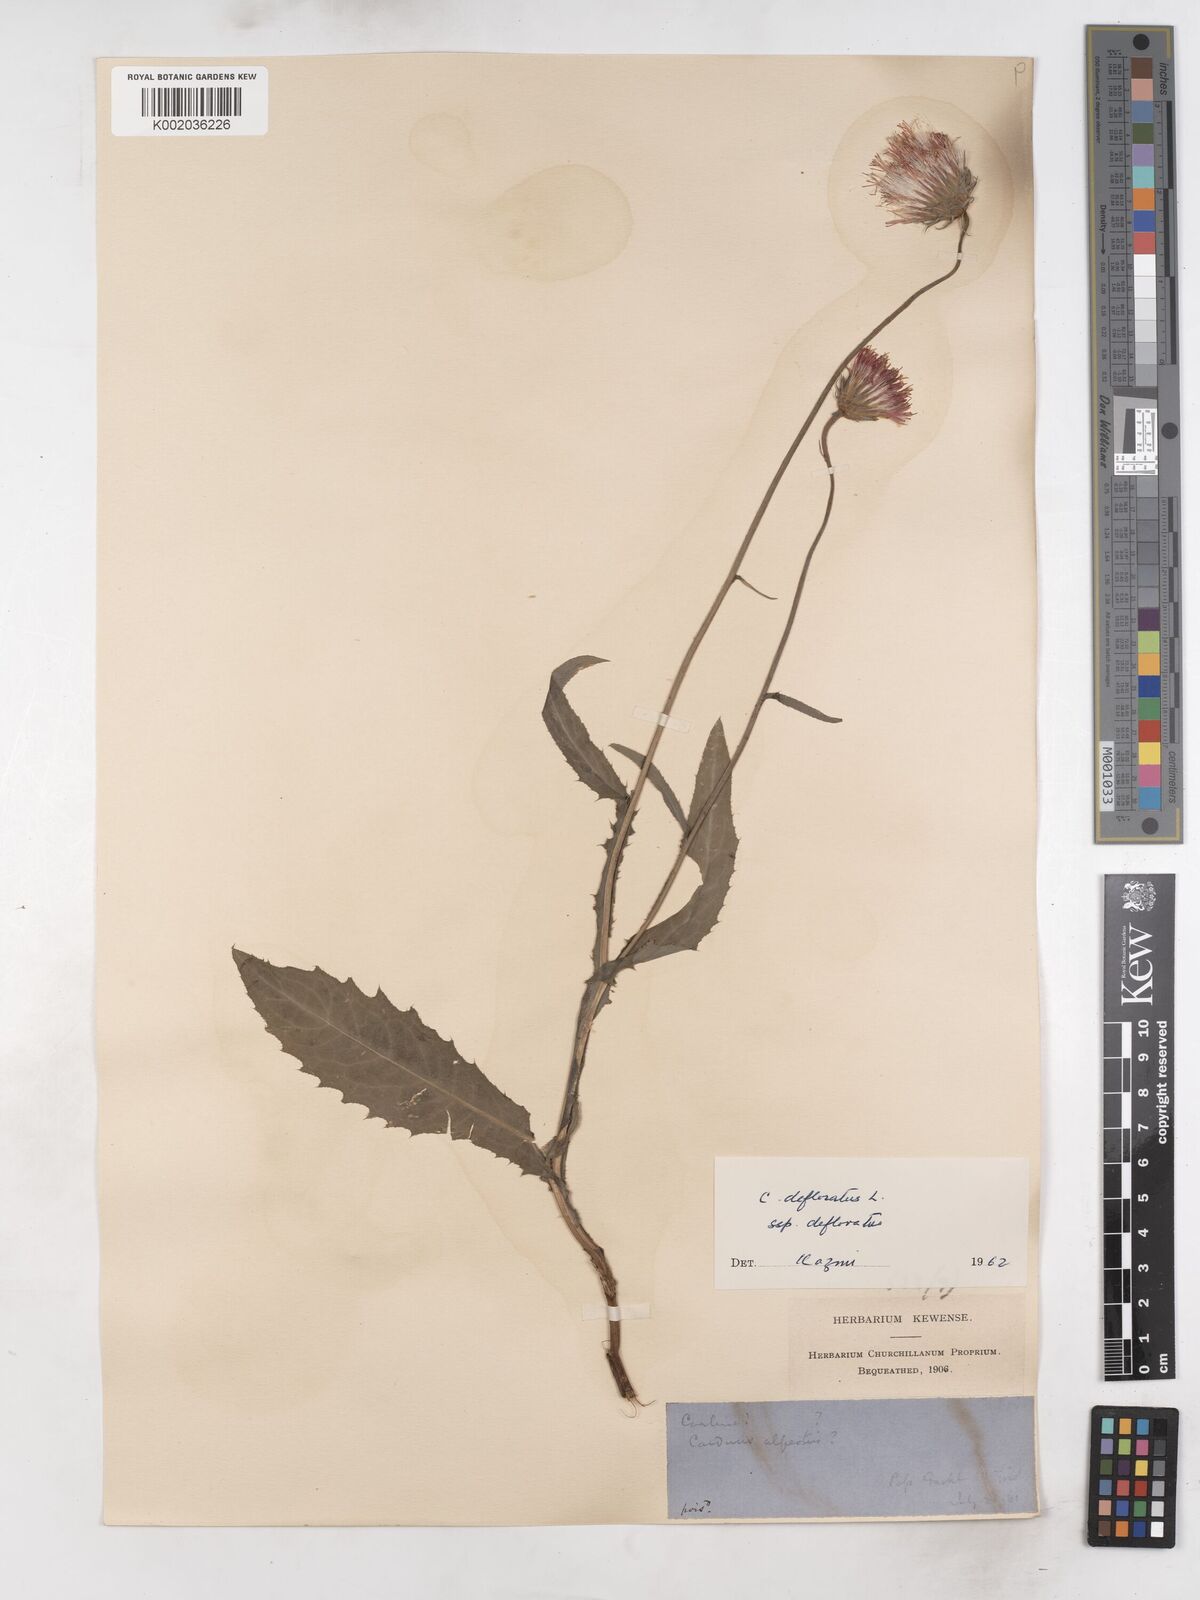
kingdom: Plantae
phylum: Tracheophyta
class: Magnoliopsida
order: Asterales
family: Asteraceae
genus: Carduus
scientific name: Carduus defloratus
